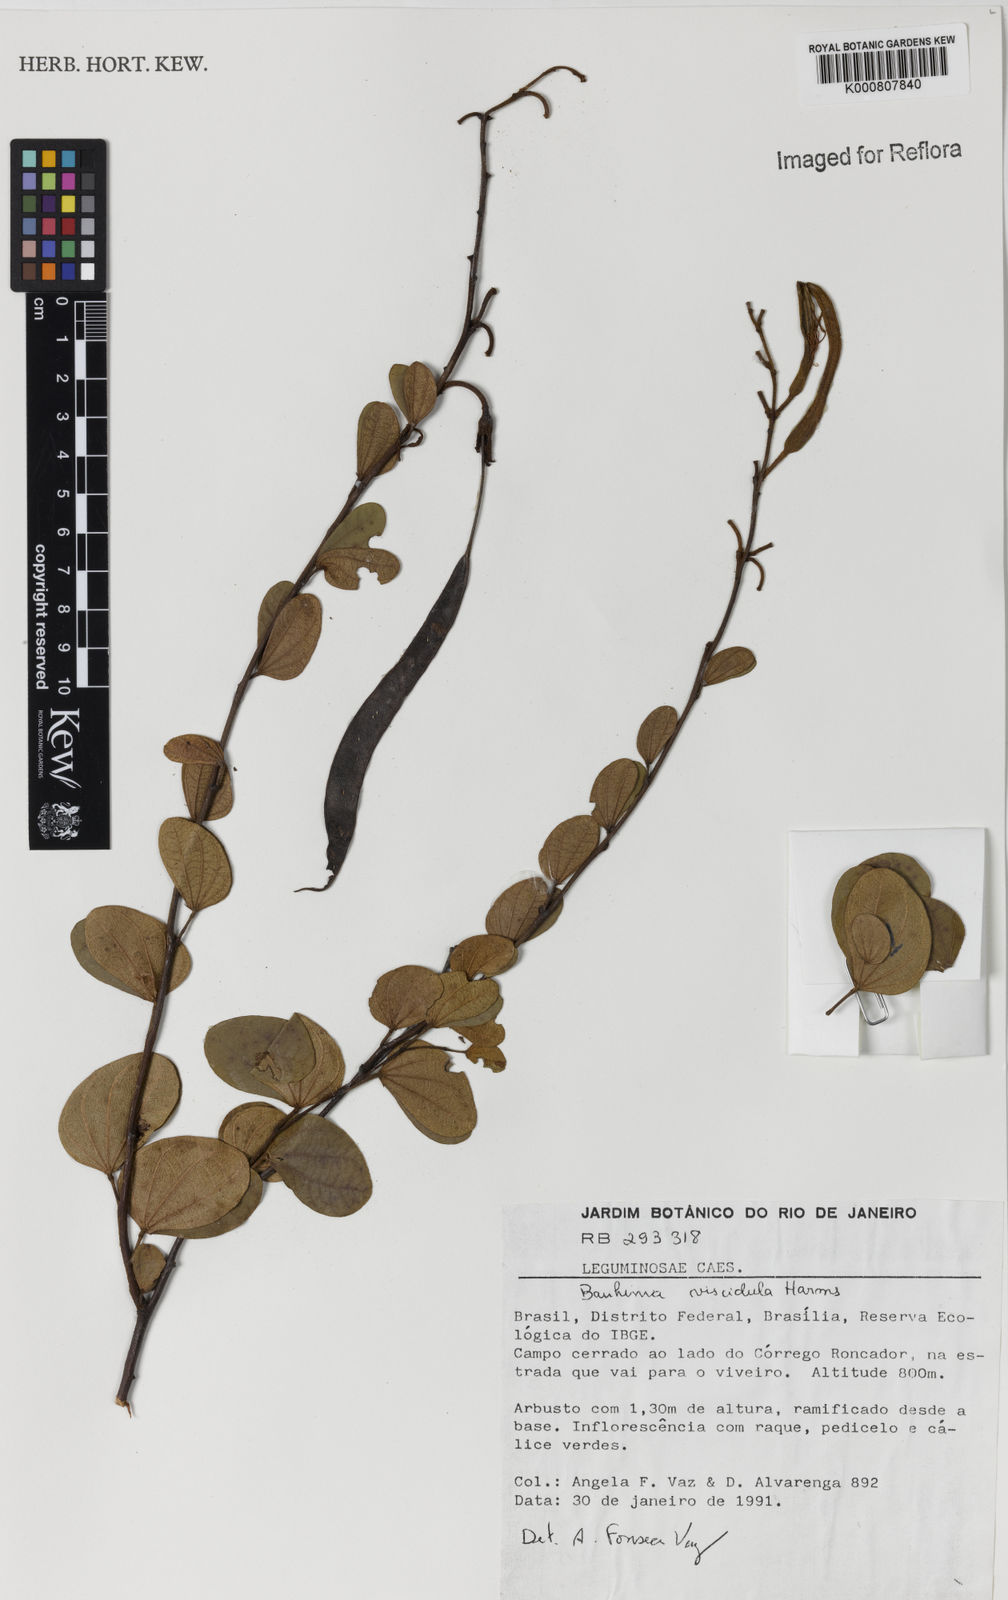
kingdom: Plantae
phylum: Tracheophyta
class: Magnoliopsida
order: Fabales
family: Fabaceae
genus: Bauhinia
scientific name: Bauhinia dumosa
